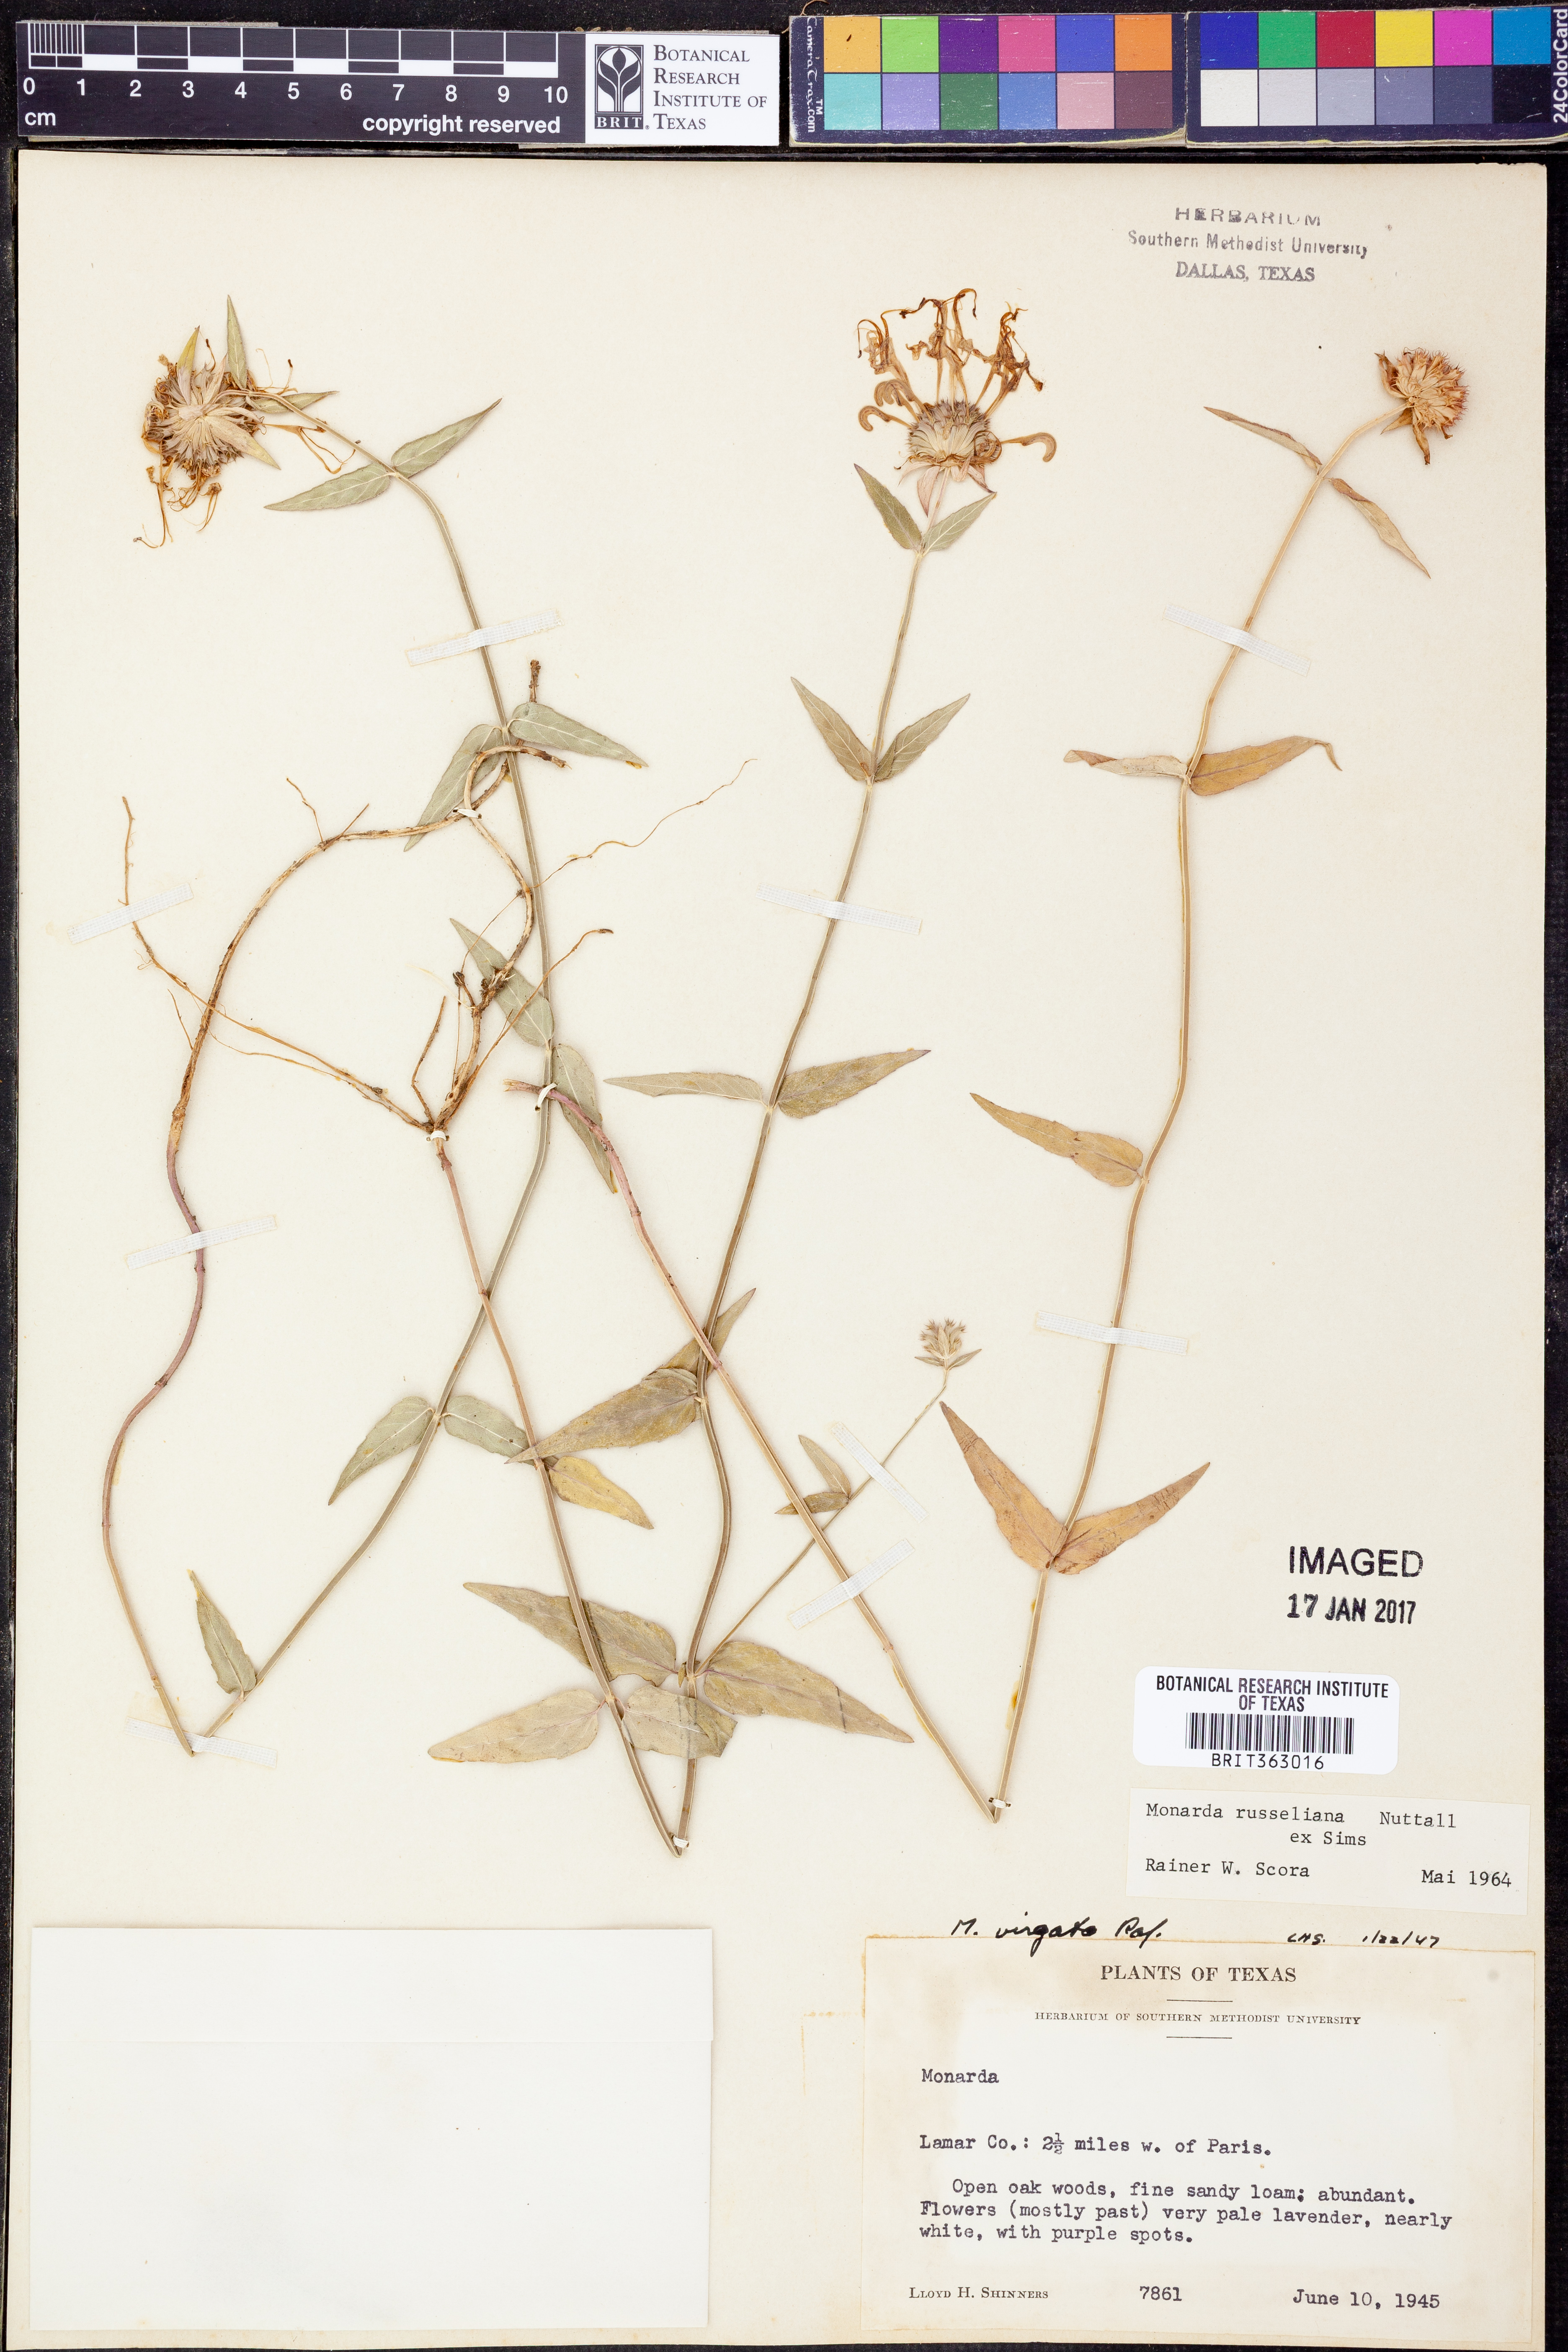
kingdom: Plantae
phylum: Tracheophyta
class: Magnoliopsida
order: Lamiales
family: Lamiaceae
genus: Monarda
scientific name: Monarda russeliana
